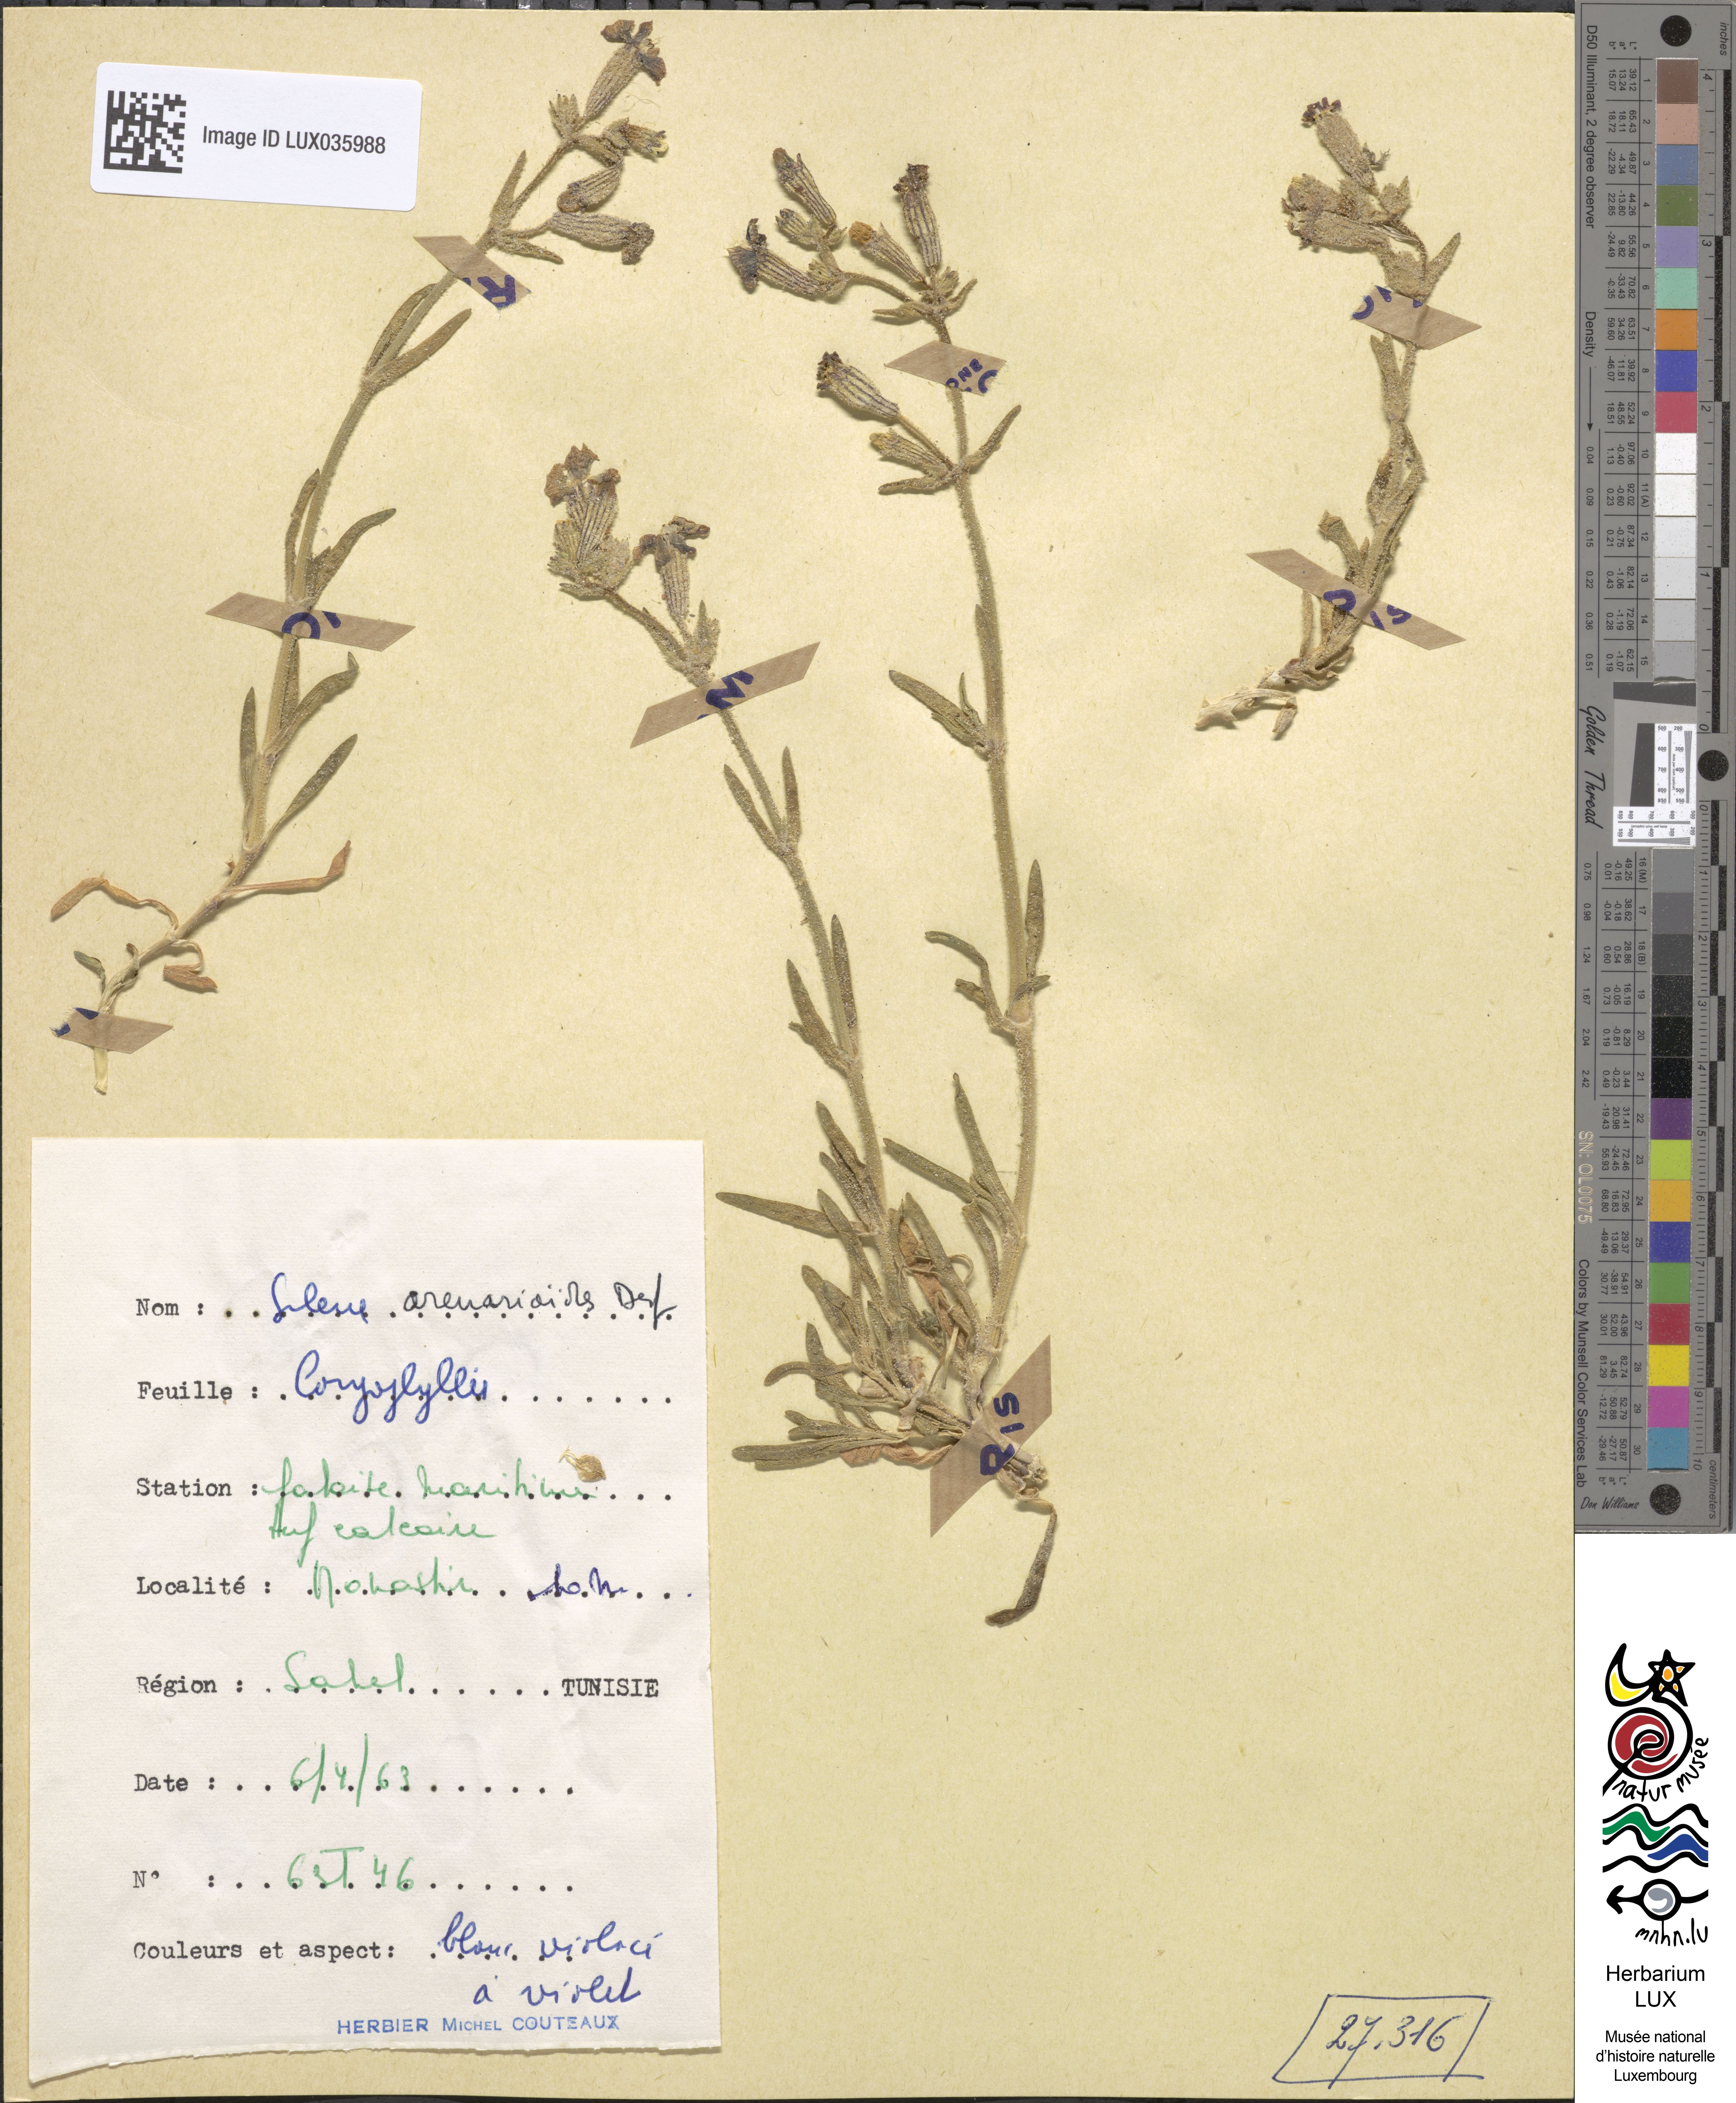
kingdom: Plantae
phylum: Tracheophyta
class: Magnoliopsida
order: Caryophyllales
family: Caryophyllaceae
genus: Silene
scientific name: Silene arenarioides
